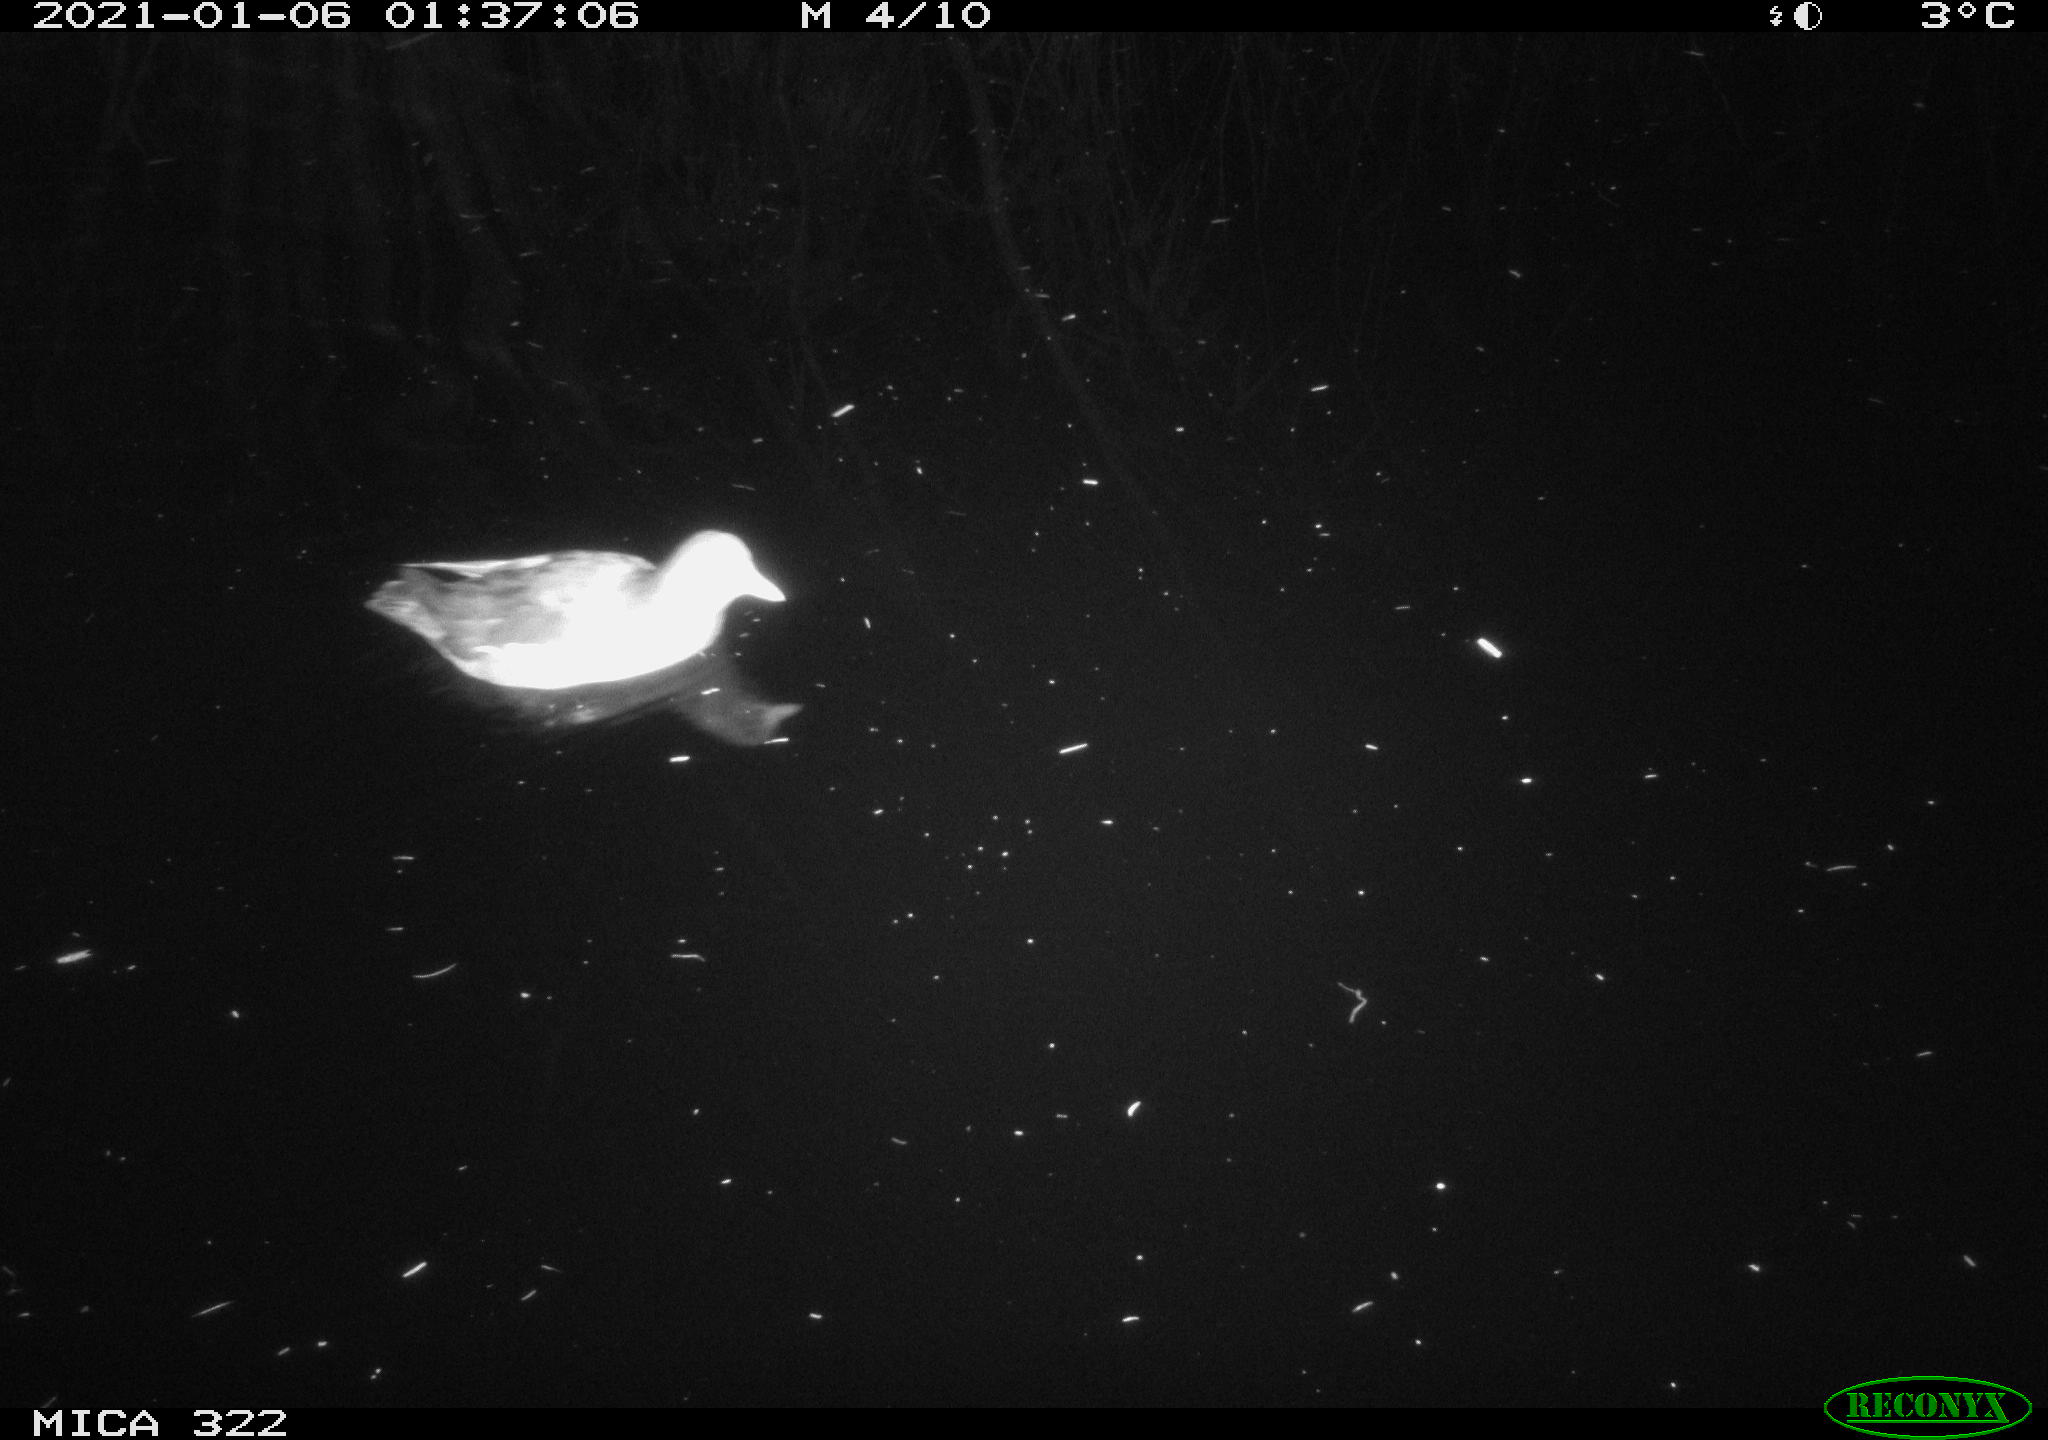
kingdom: Animalia
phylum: Chordata
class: Aves
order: Gruiformes
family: Rallidae
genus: Gallinula
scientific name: Gallinula chloropus
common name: Common moorhen
